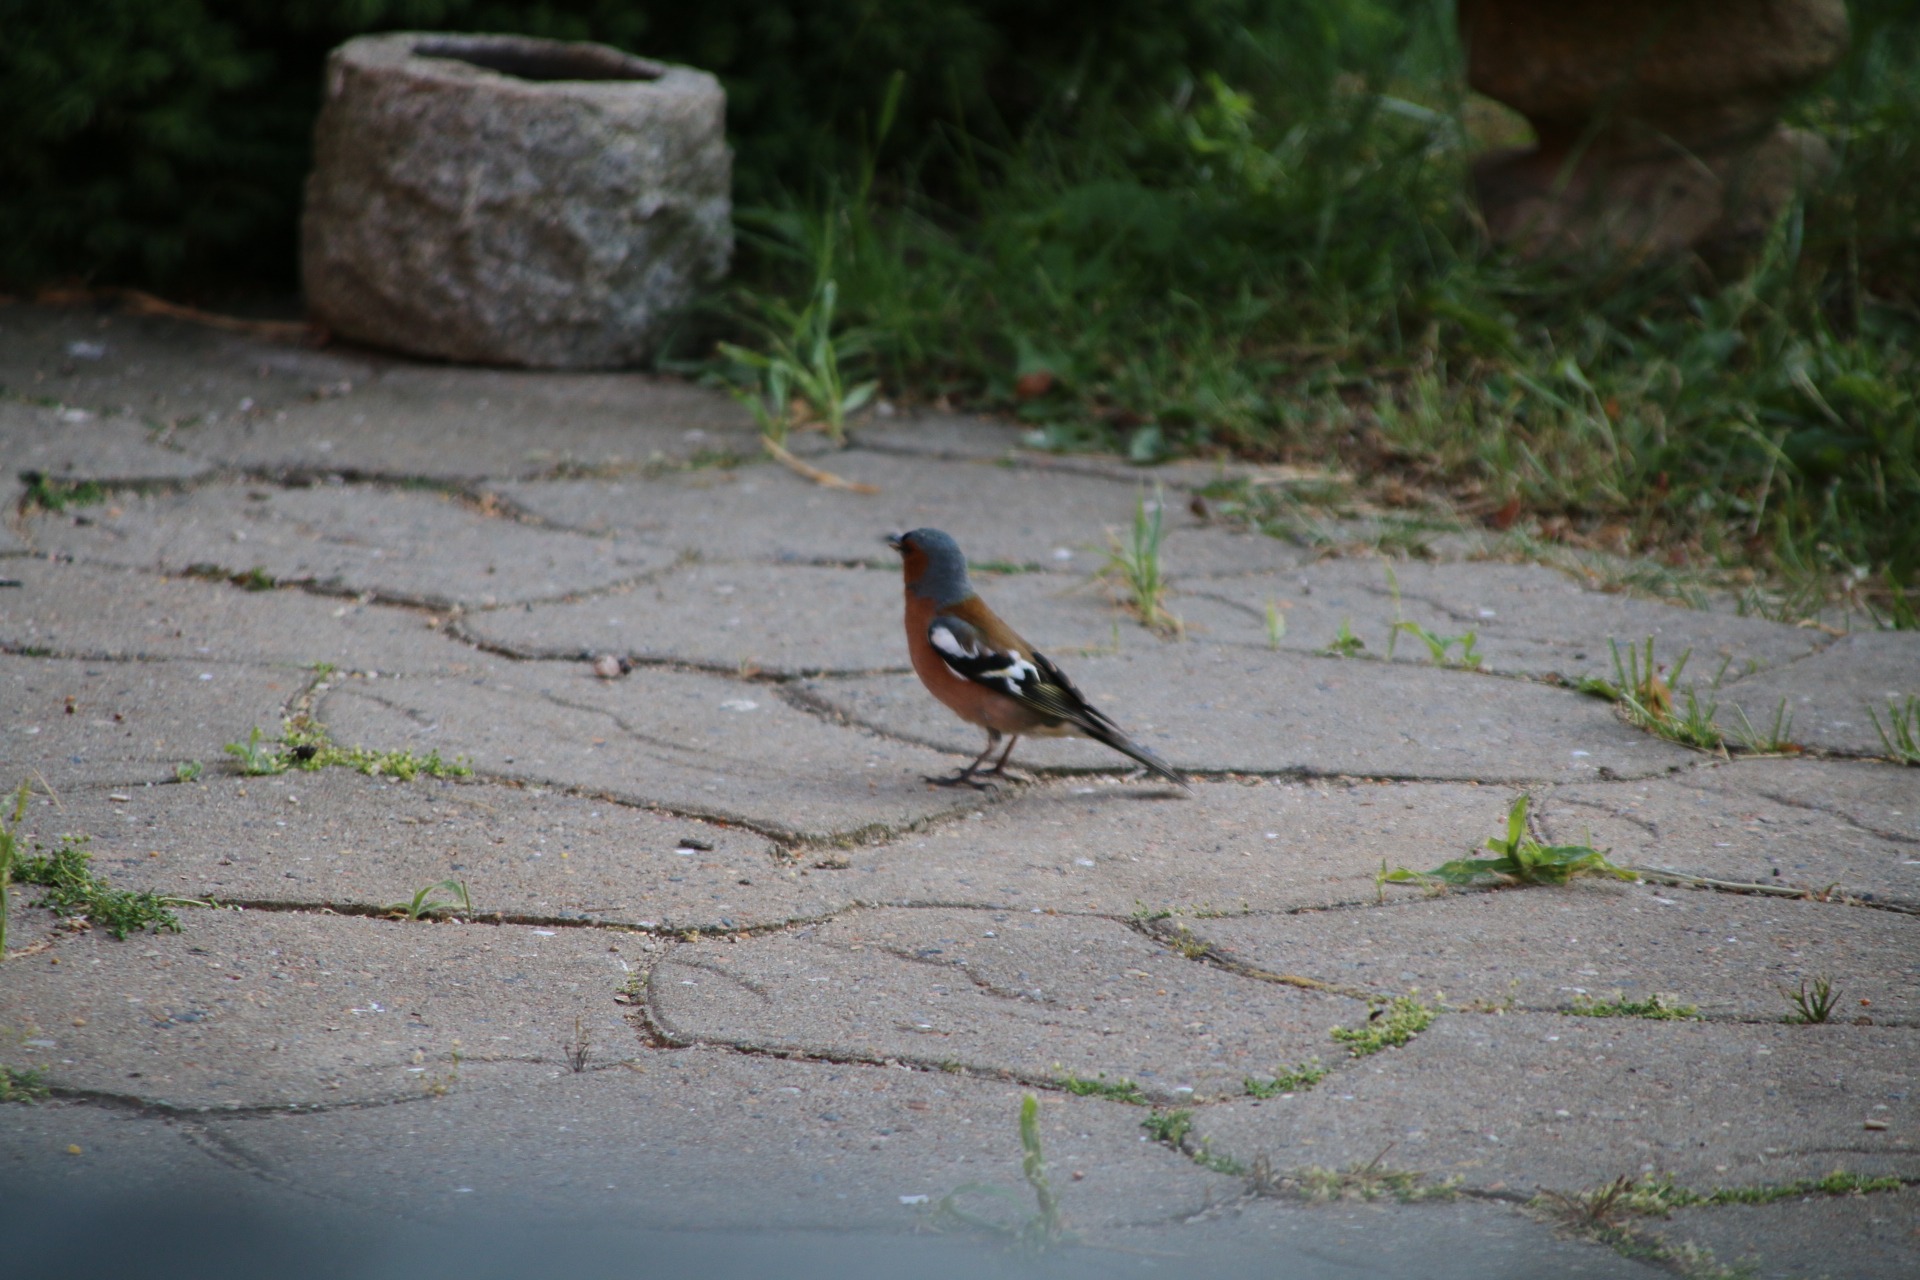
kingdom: Animalia
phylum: Chordata
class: Aves
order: Passeriformes
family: Fringillidae
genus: Fringilla
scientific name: Fringilla coelebs
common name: Bogfinke
